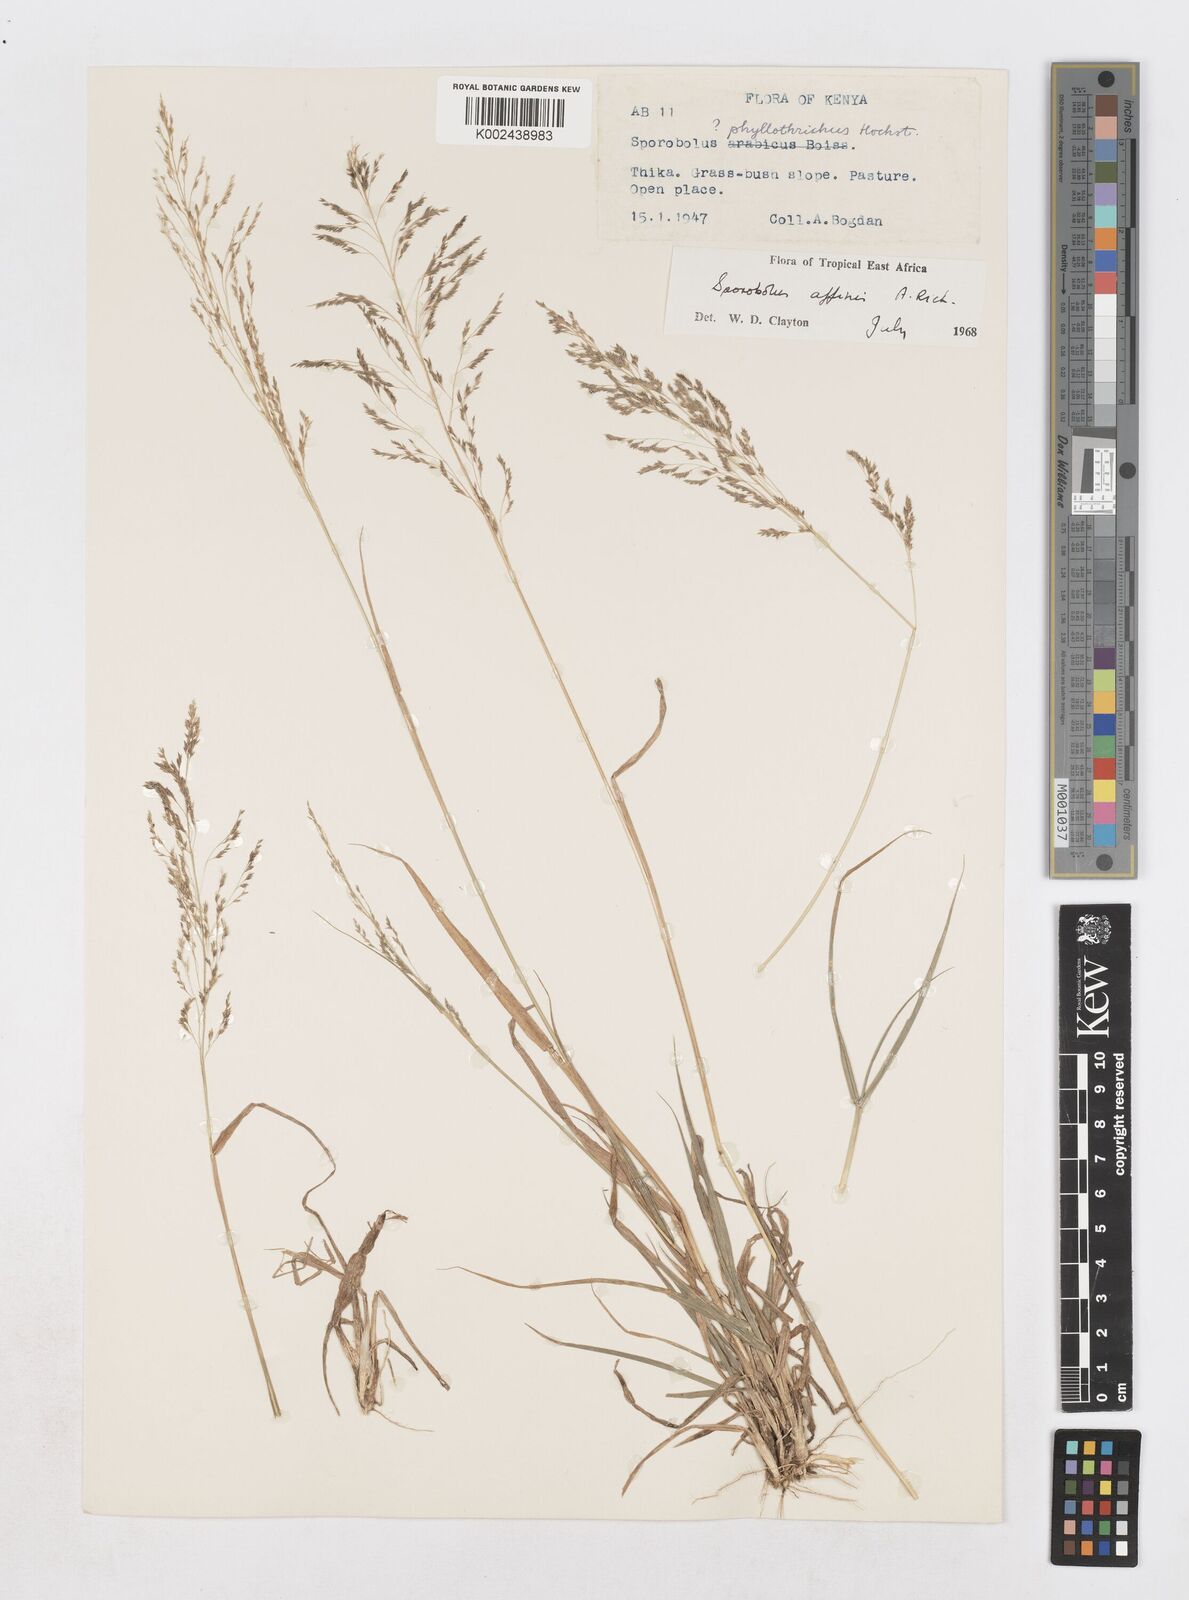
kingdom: Plantae
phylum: Tracheophyta
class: Liliopsida
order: Poales
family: Poaceae
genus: Sporobolus
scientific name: Sporobolus confinis
